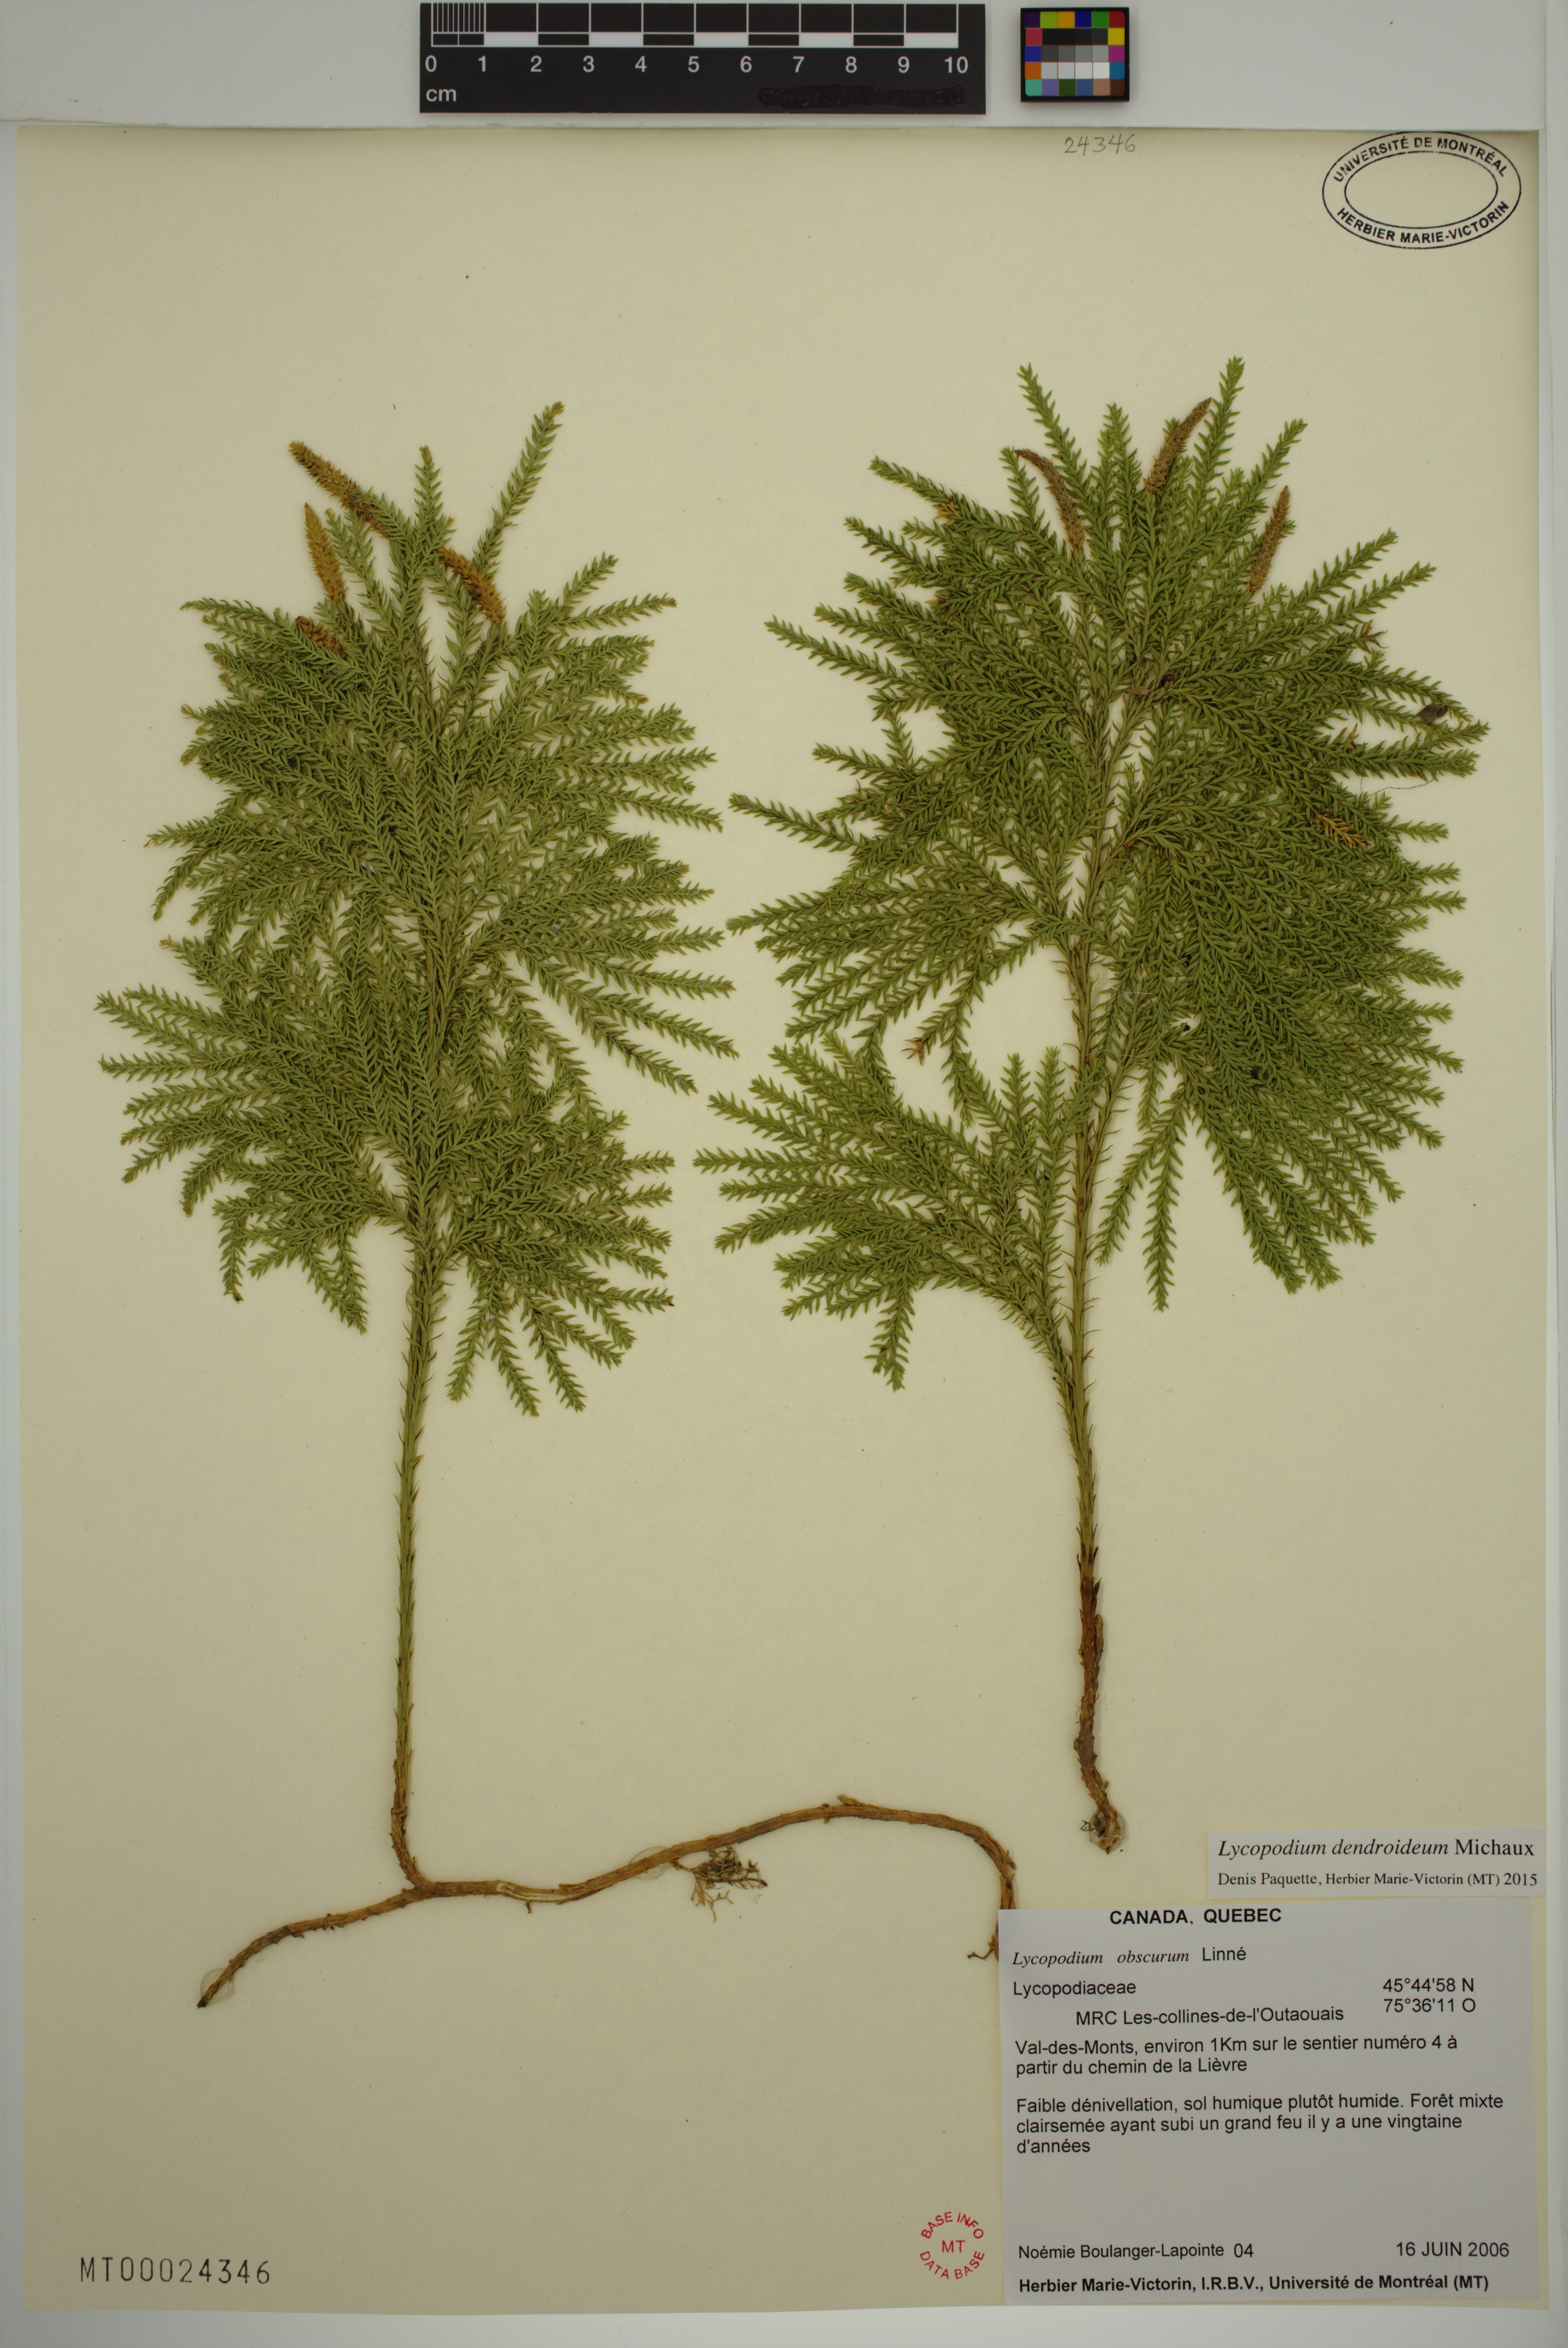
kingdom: Plantae
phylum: Tracheophyta
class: Lycopodiopsida
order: Lycopodiales
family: Lycopodiaceae
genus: Dendrolycopodium
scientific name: Dendrolycopodium dendroideum
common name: Northern tree-clubmoss
